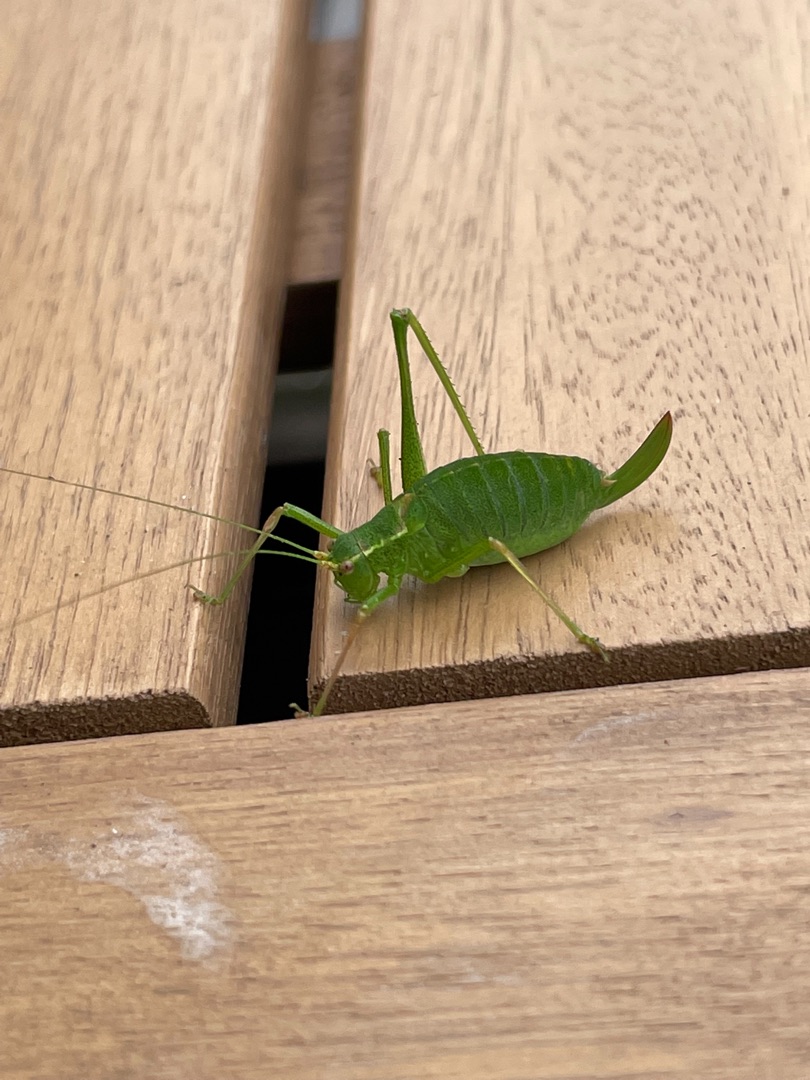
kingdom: Animalia
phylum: Arthropoda
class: Insecta
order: Orthoptera
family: Tettigoniidae
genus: Leptophyes
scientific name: Leptophyes punctatissima
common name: Krumknivgræshoppe
